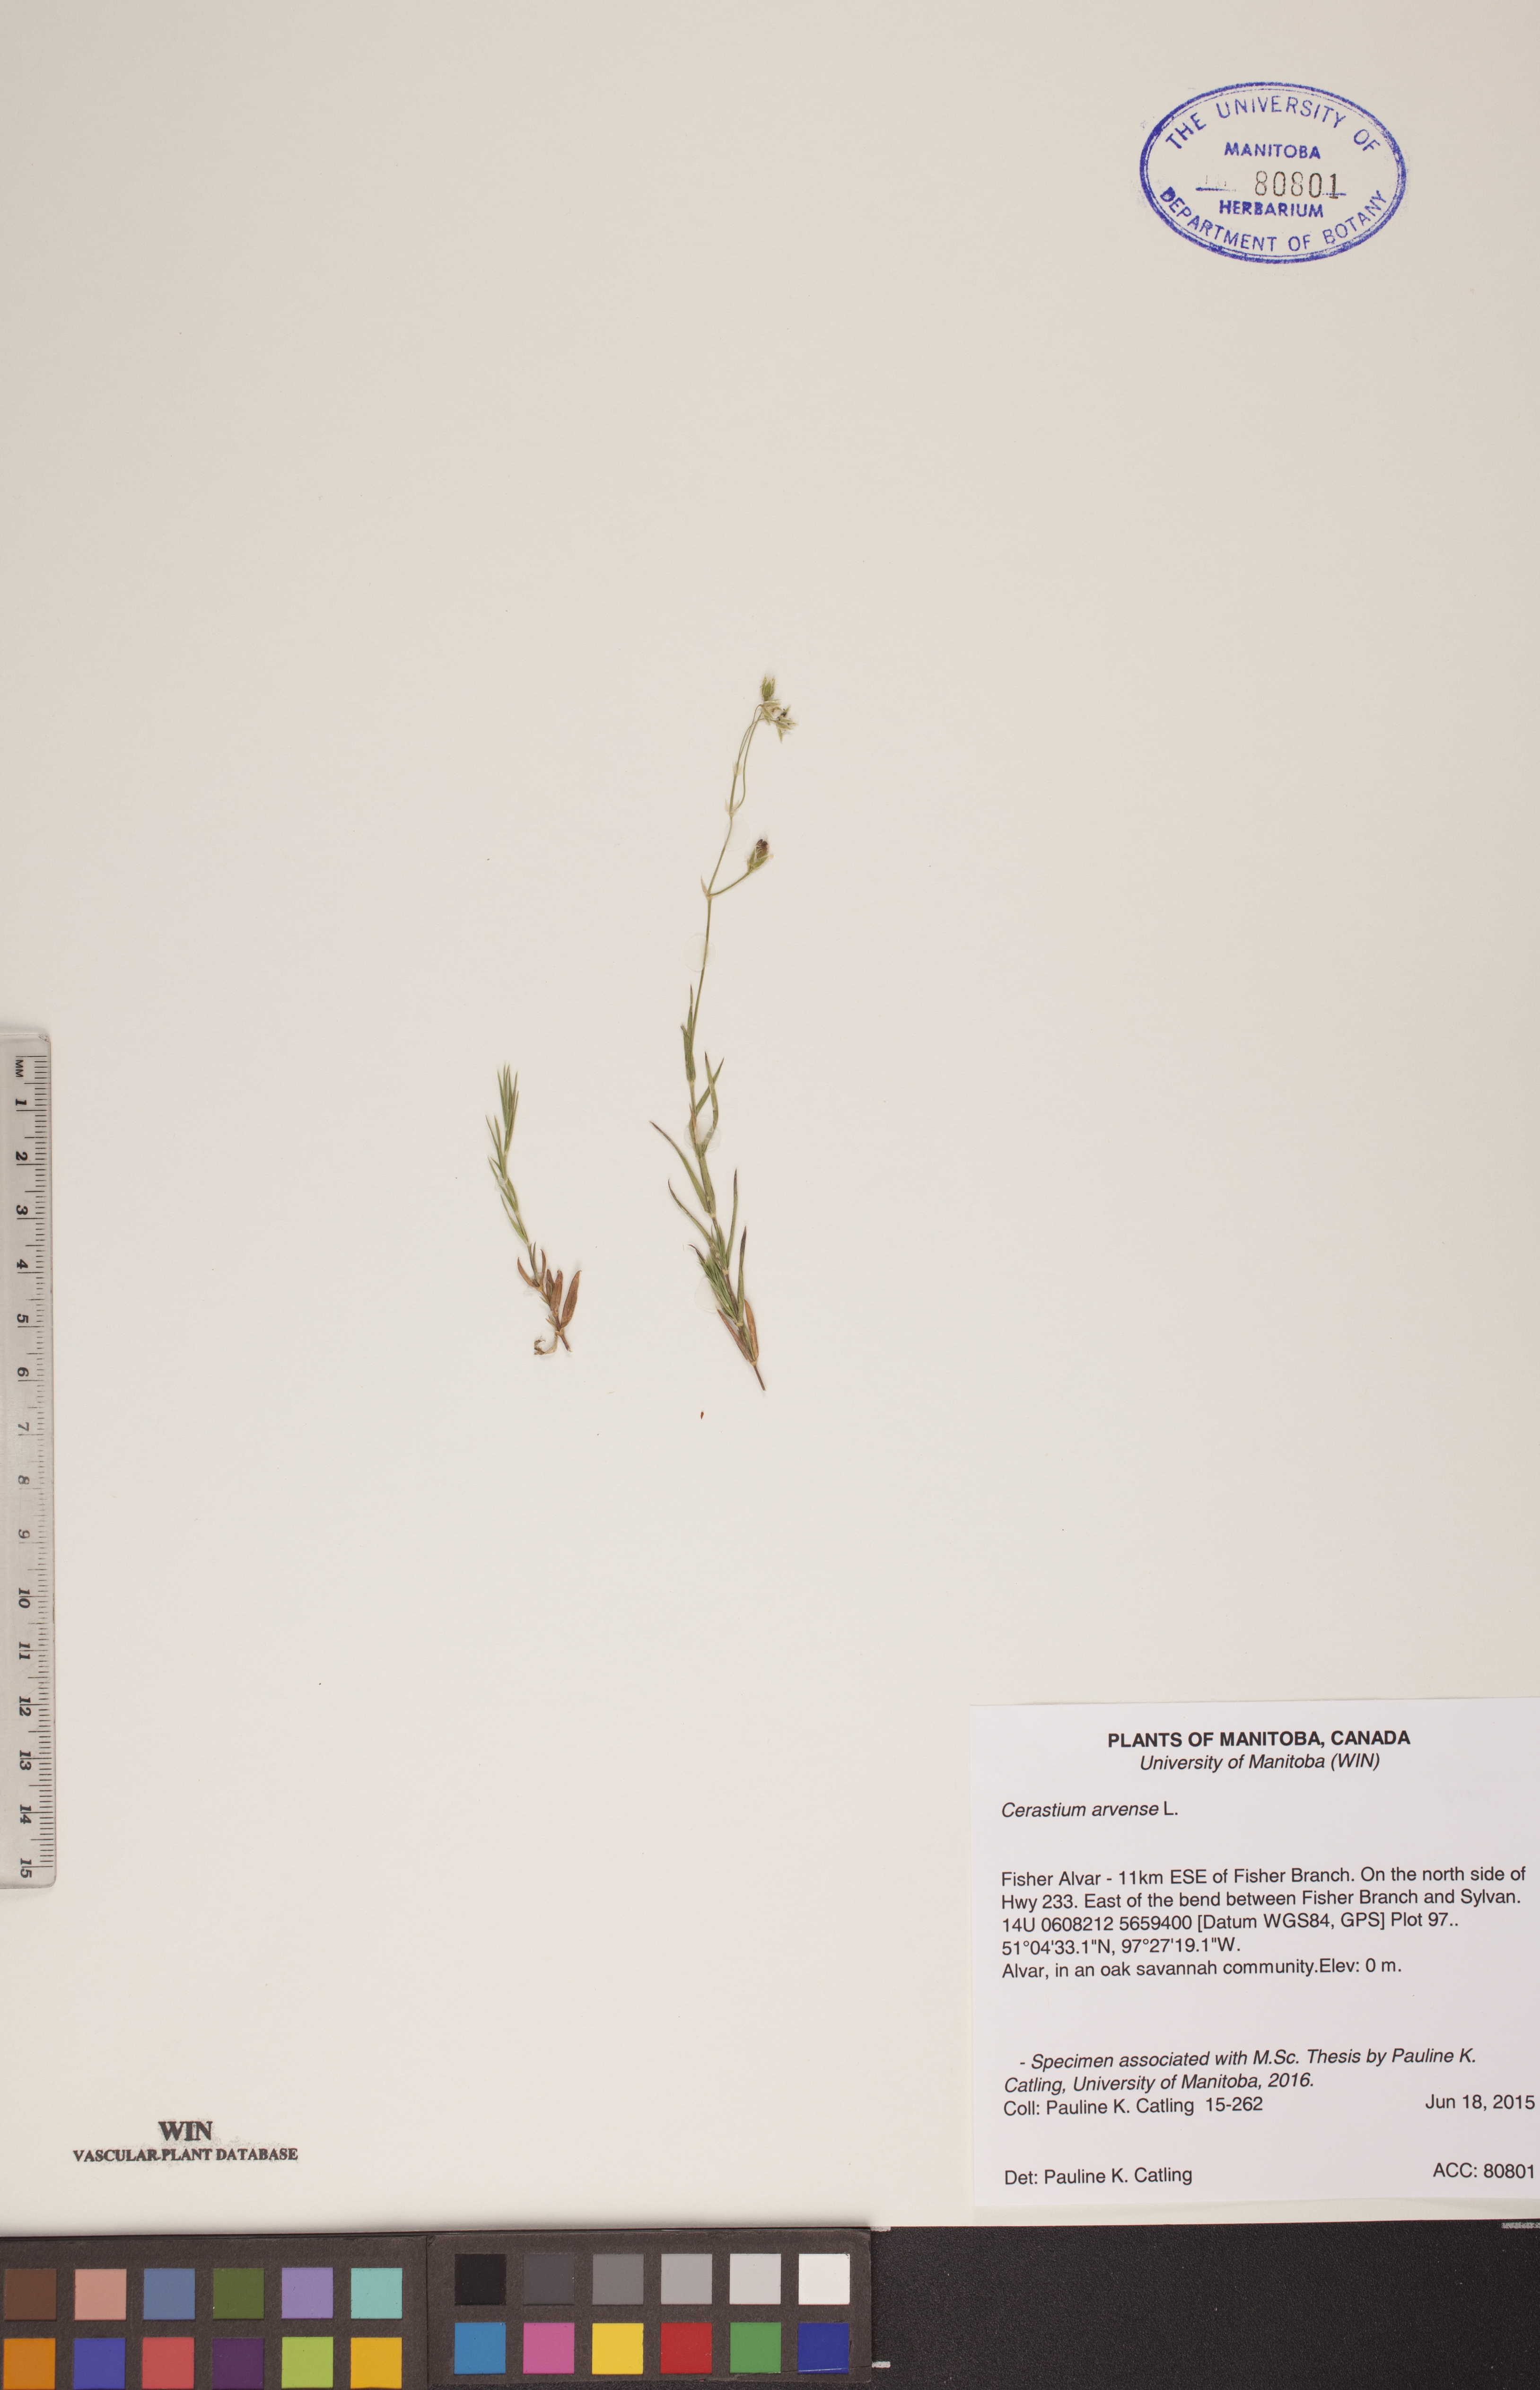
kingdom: Plantae
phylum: Tracheophyta
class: Magnoliopsida
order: Caryophyllales
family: Caryophyllaceae
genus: Cerastium
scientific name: Cerastium arvense
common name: Field mouse-ear
